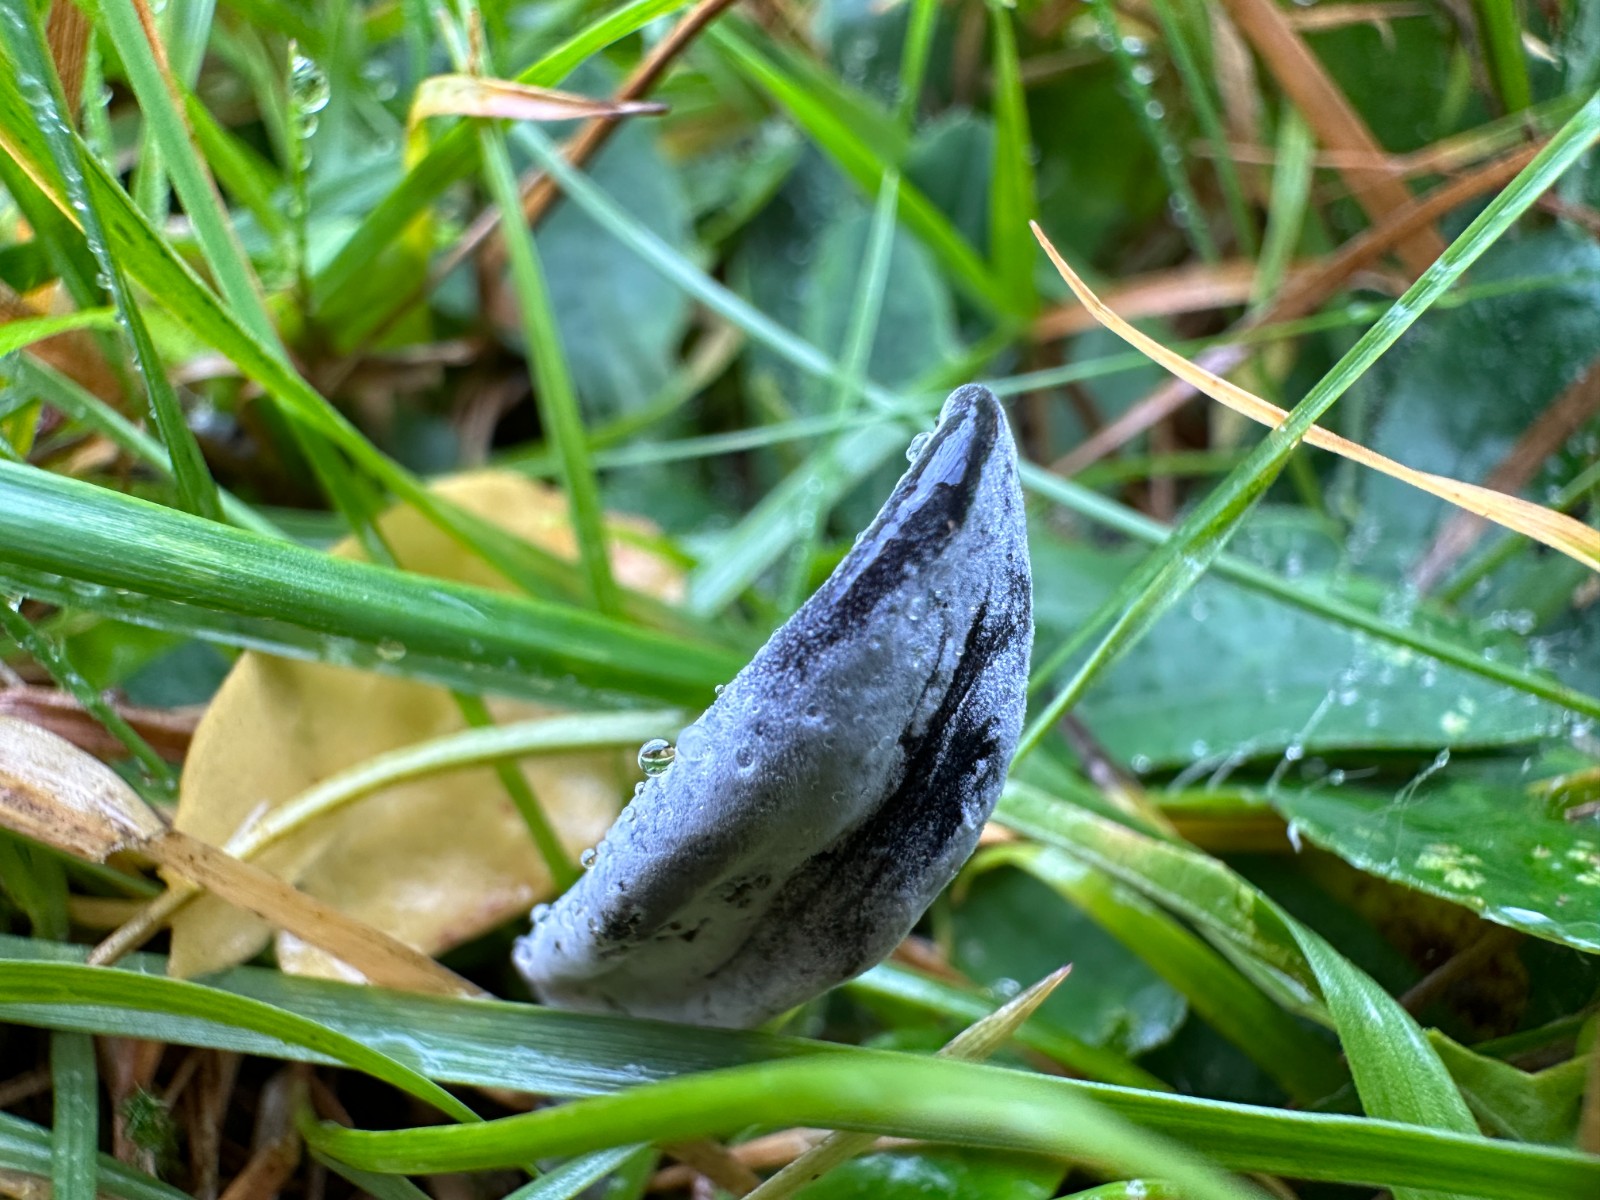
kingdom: Fungi
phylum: Ascomycota
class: Sordariomycetes
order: Hypocreales
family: Hypocreaceae
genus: Hypomyces
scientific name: Hypomyces papulasporae
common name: jordtunge-snylteskorpe
